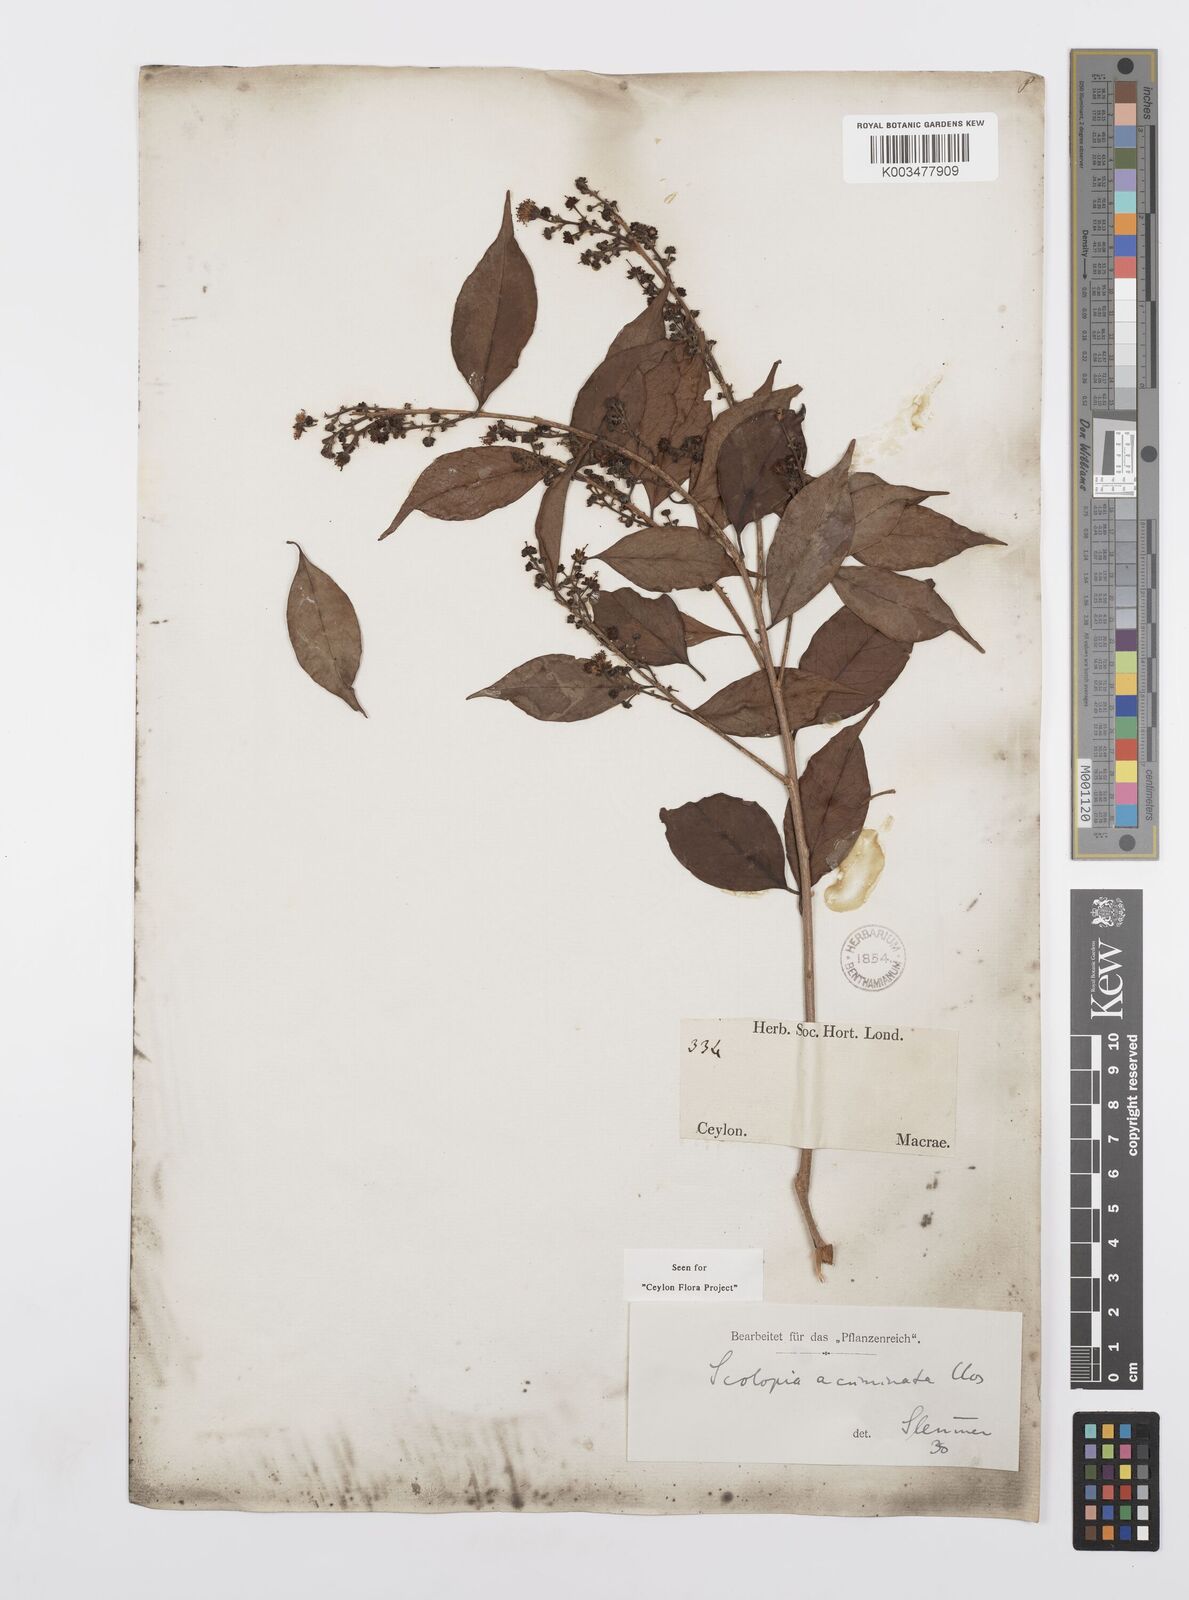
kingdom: Plantae
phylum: Tracheophyta
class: Magnoliopsida
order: Malpighiales
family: Salicaceae
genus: Scolopia
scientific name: Scolopia acuminata
